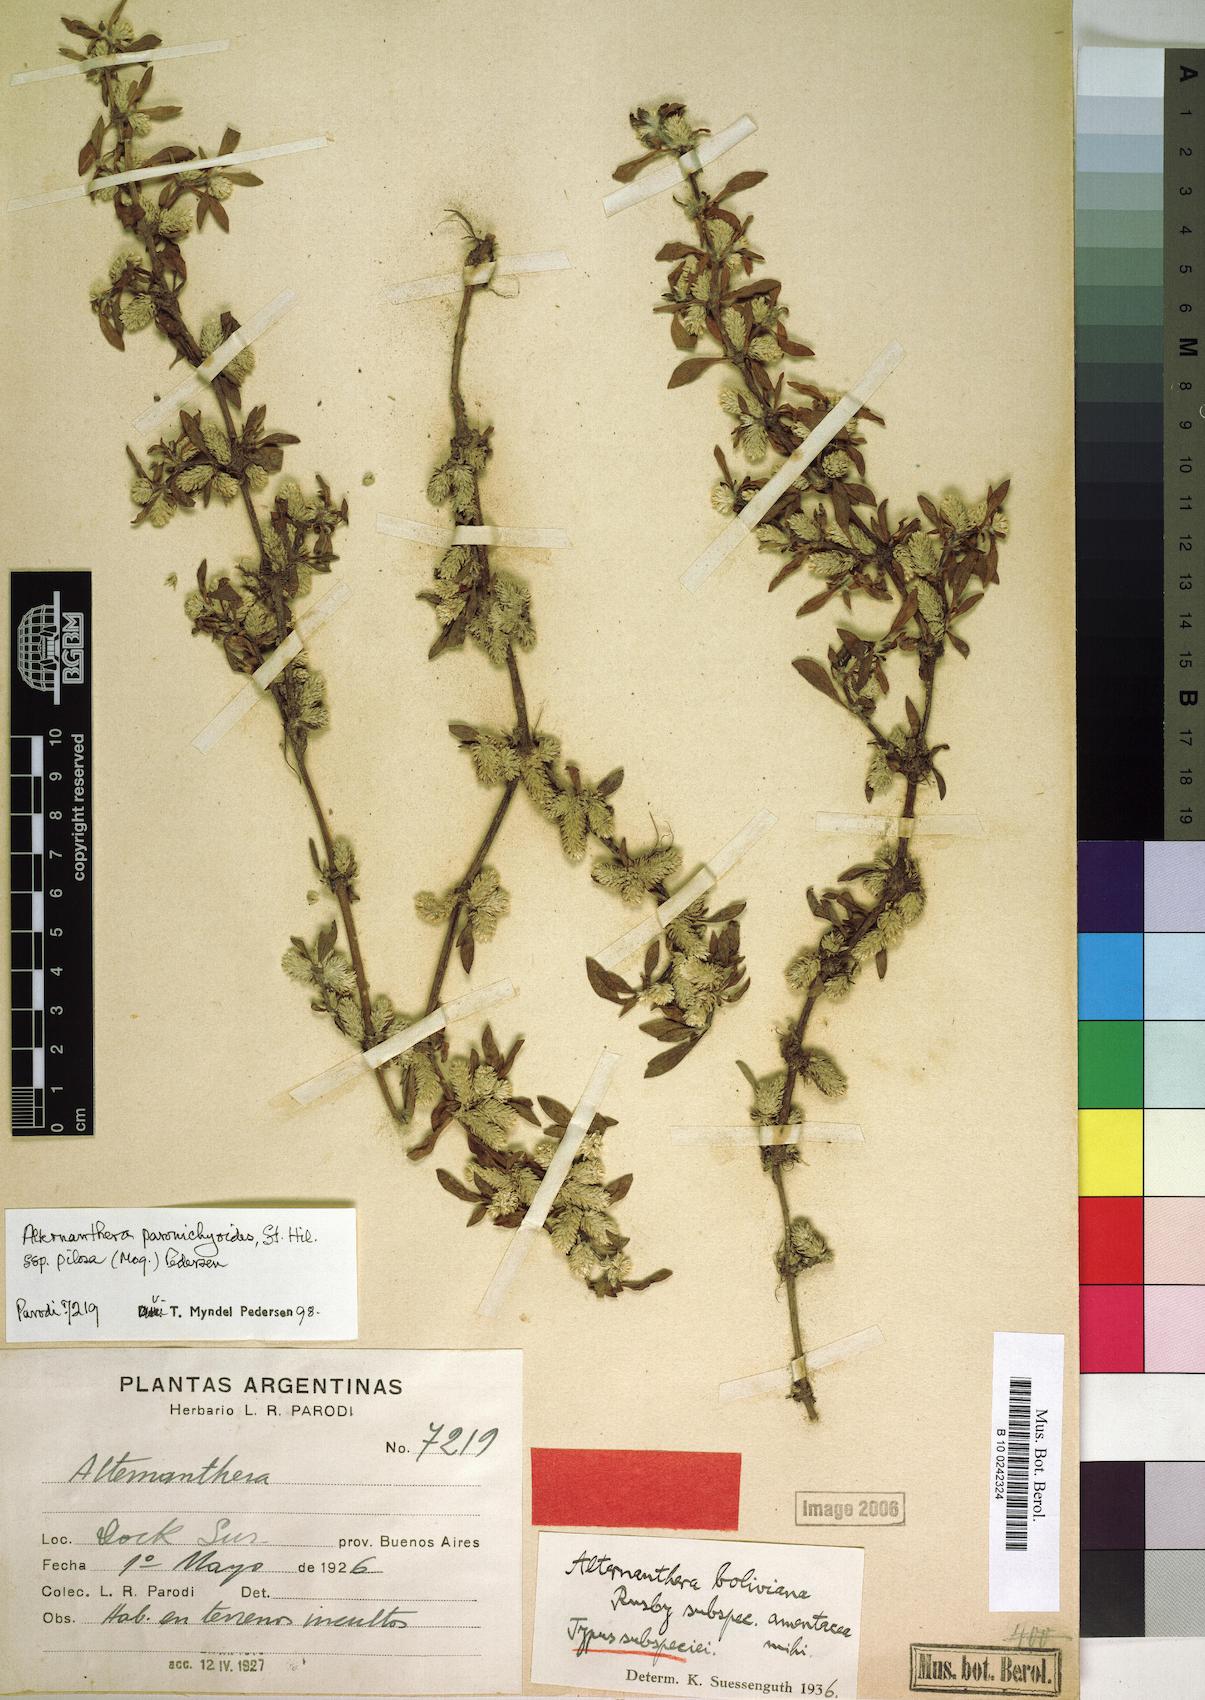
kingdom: Plantae
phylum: Tracheophyta
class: Magnoliopsida
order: Caryophyllales
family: Amaranthaceae
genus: Alternanthera
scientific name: Alternanthera paronychioides
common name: Smooth joyweed
